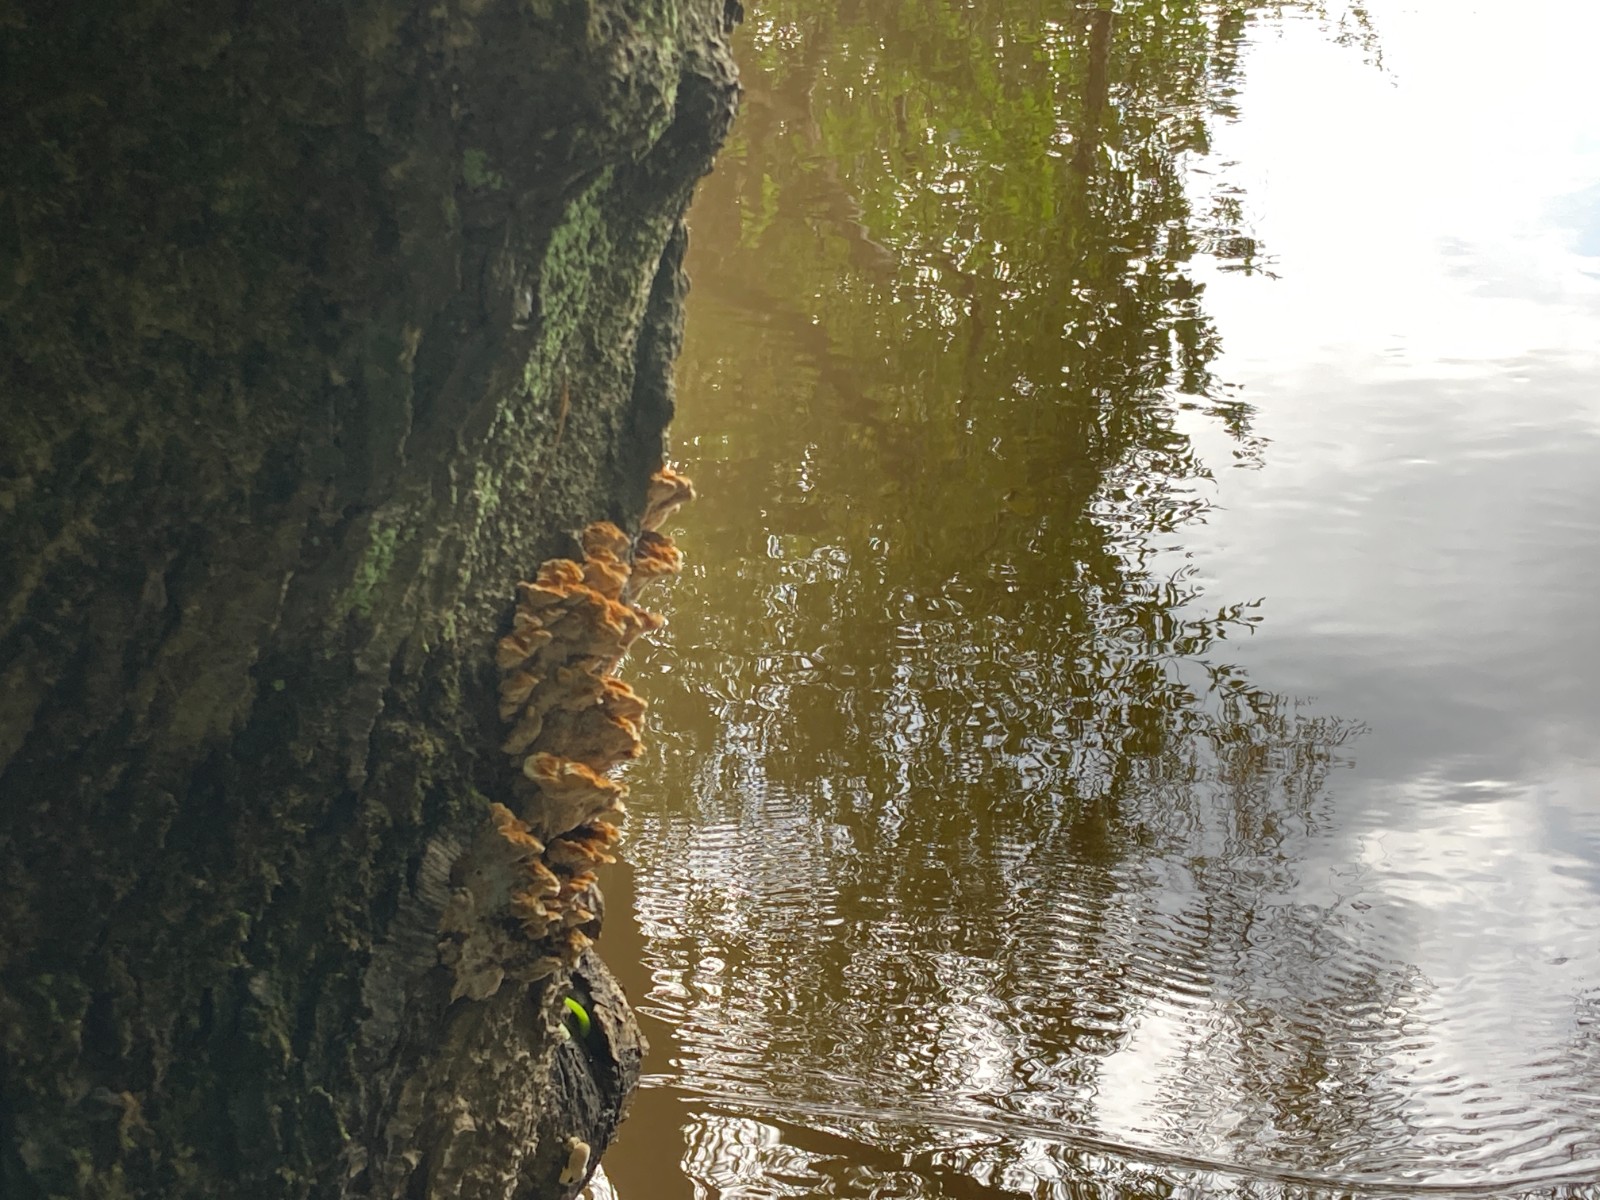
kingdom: Fungi
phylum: Basidiomycota
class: Agaricomycetes
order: Hymenochaetales
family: Hymenochaetaceae
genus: Xanthoporia
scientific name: Xanthoporia radiata
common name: elle-spejlporesvamp
